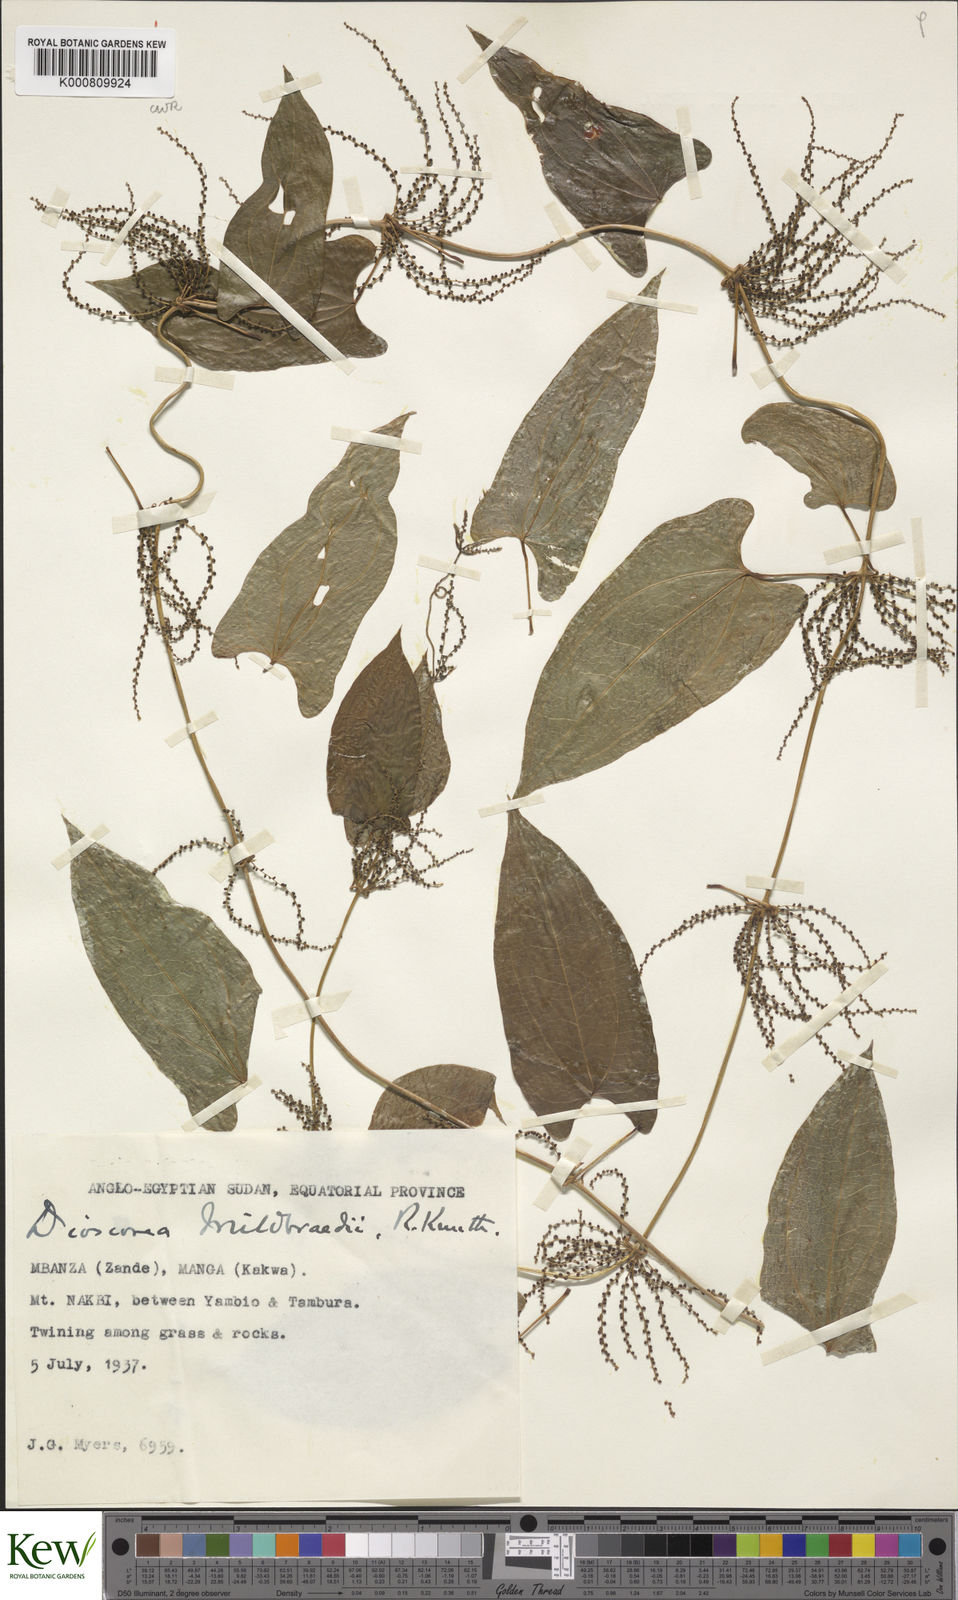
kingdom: Plantae
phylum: Tracheophyta
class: Liliopsida
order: Dioscoreales
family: Dioscoreaceae
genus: Dioscorea
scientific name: Dioscorea sagittifolia
